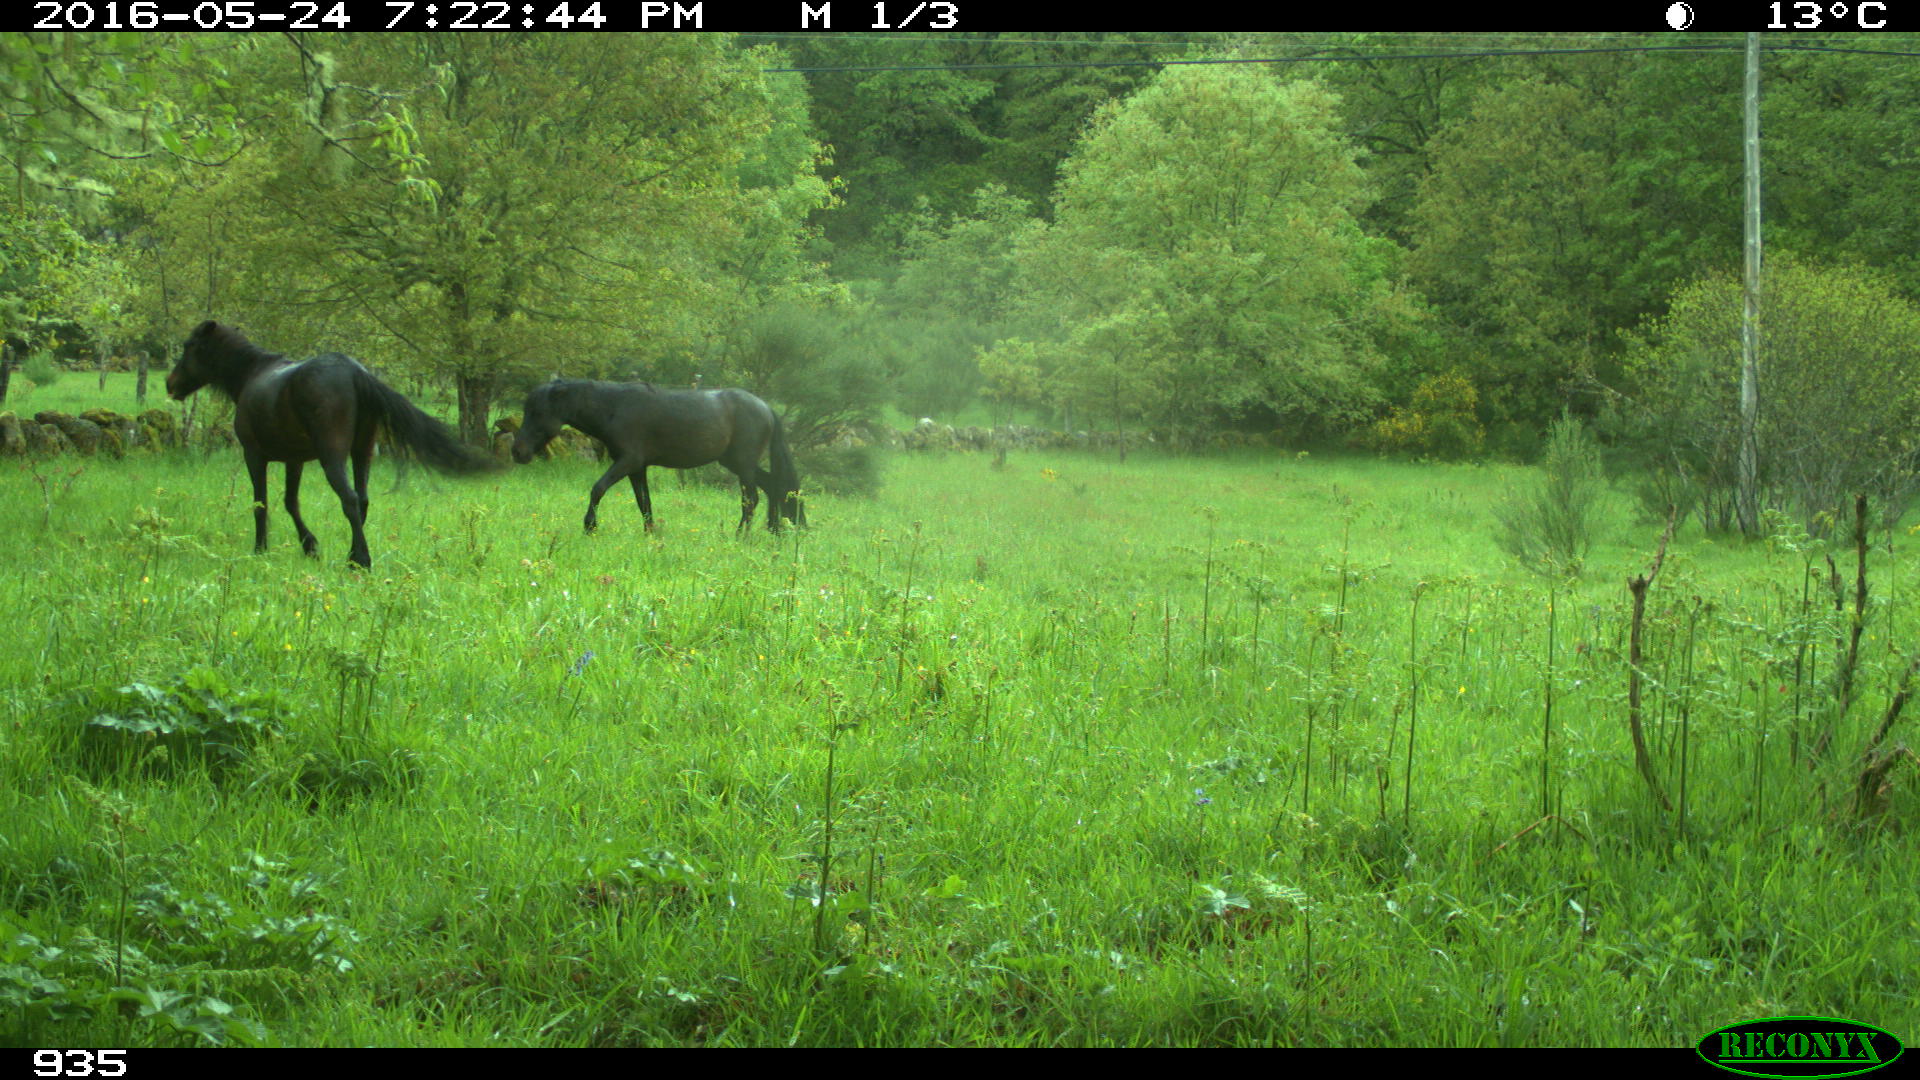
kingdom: Animalia
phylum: Chordata
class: Mammalia
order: Perissodactyla
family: Equidae
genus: Equus
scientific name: Equus caballus
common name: Horse
